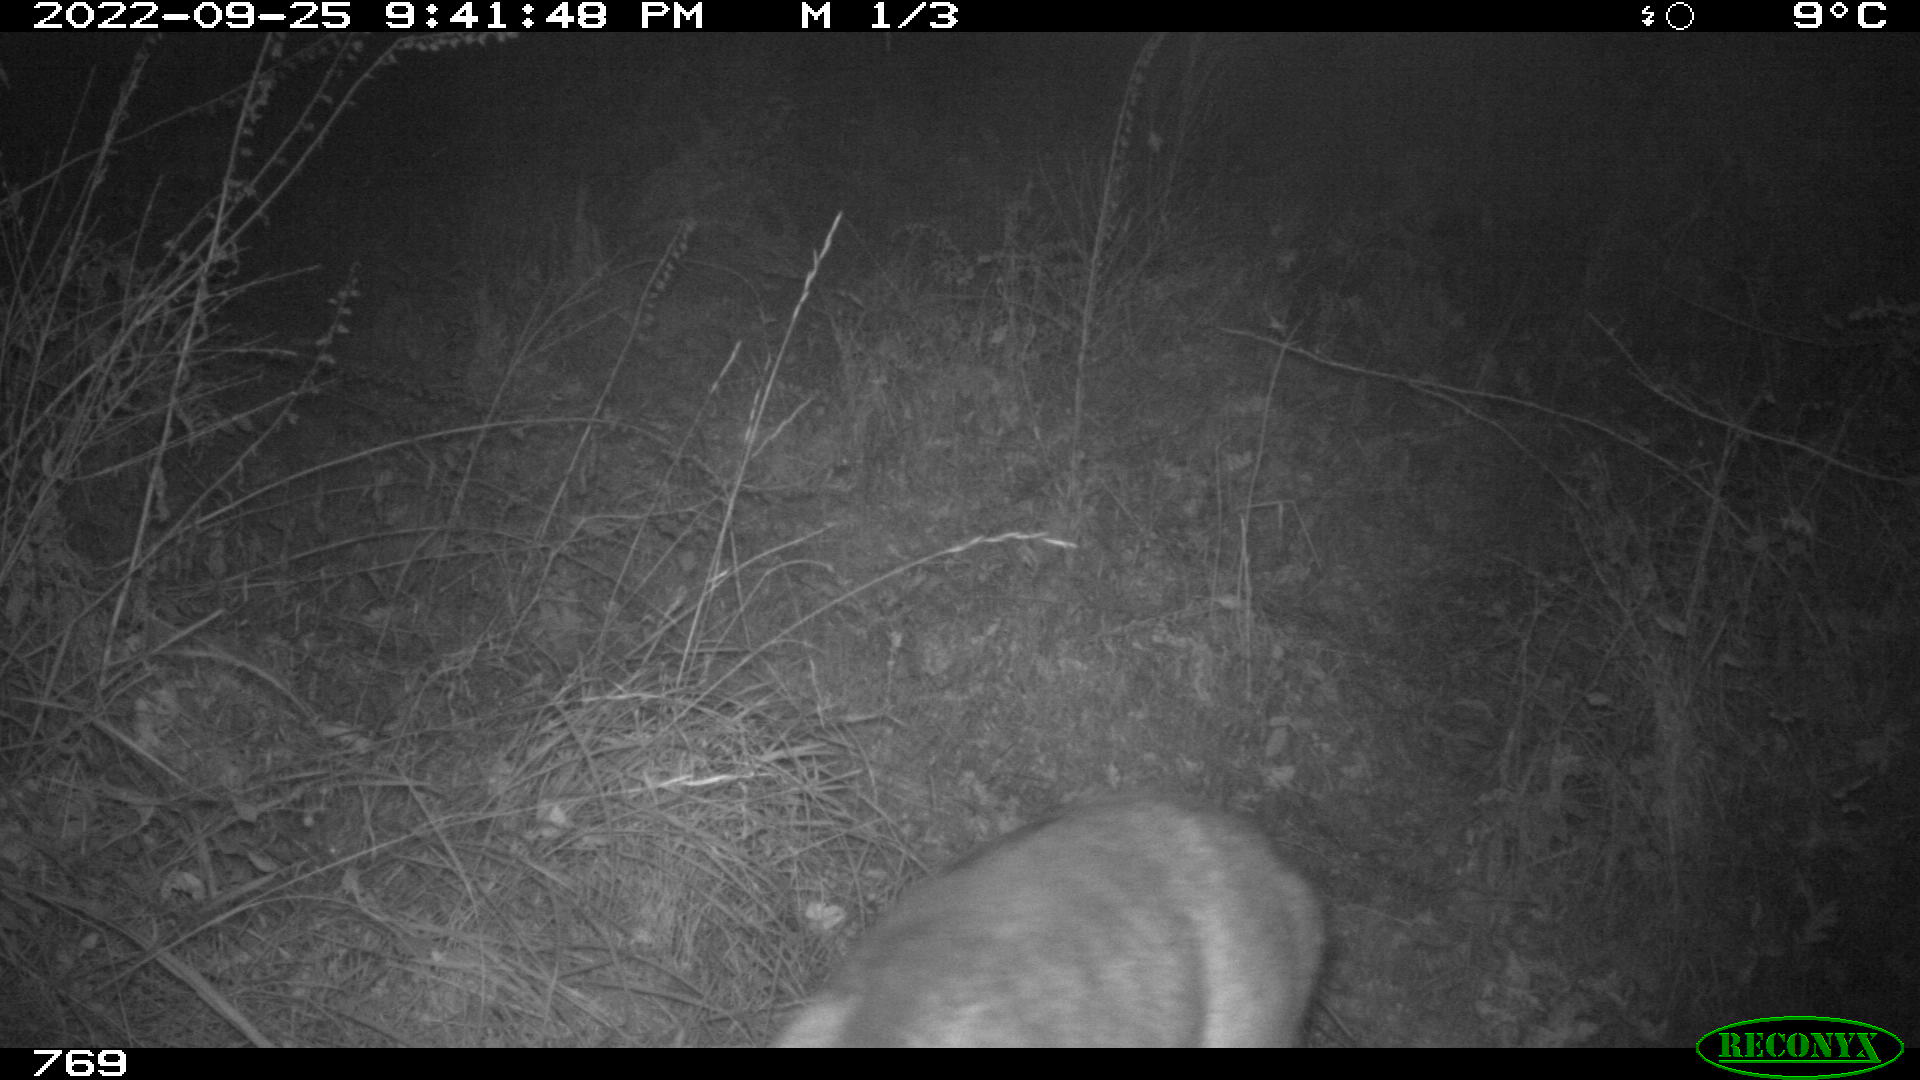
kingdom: Animalia
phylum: Chordata
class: Mammalia
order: Artiodactyla
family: Cervidae
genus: Capreolus
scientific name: Capreolus capreolus
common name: Western roe deer
